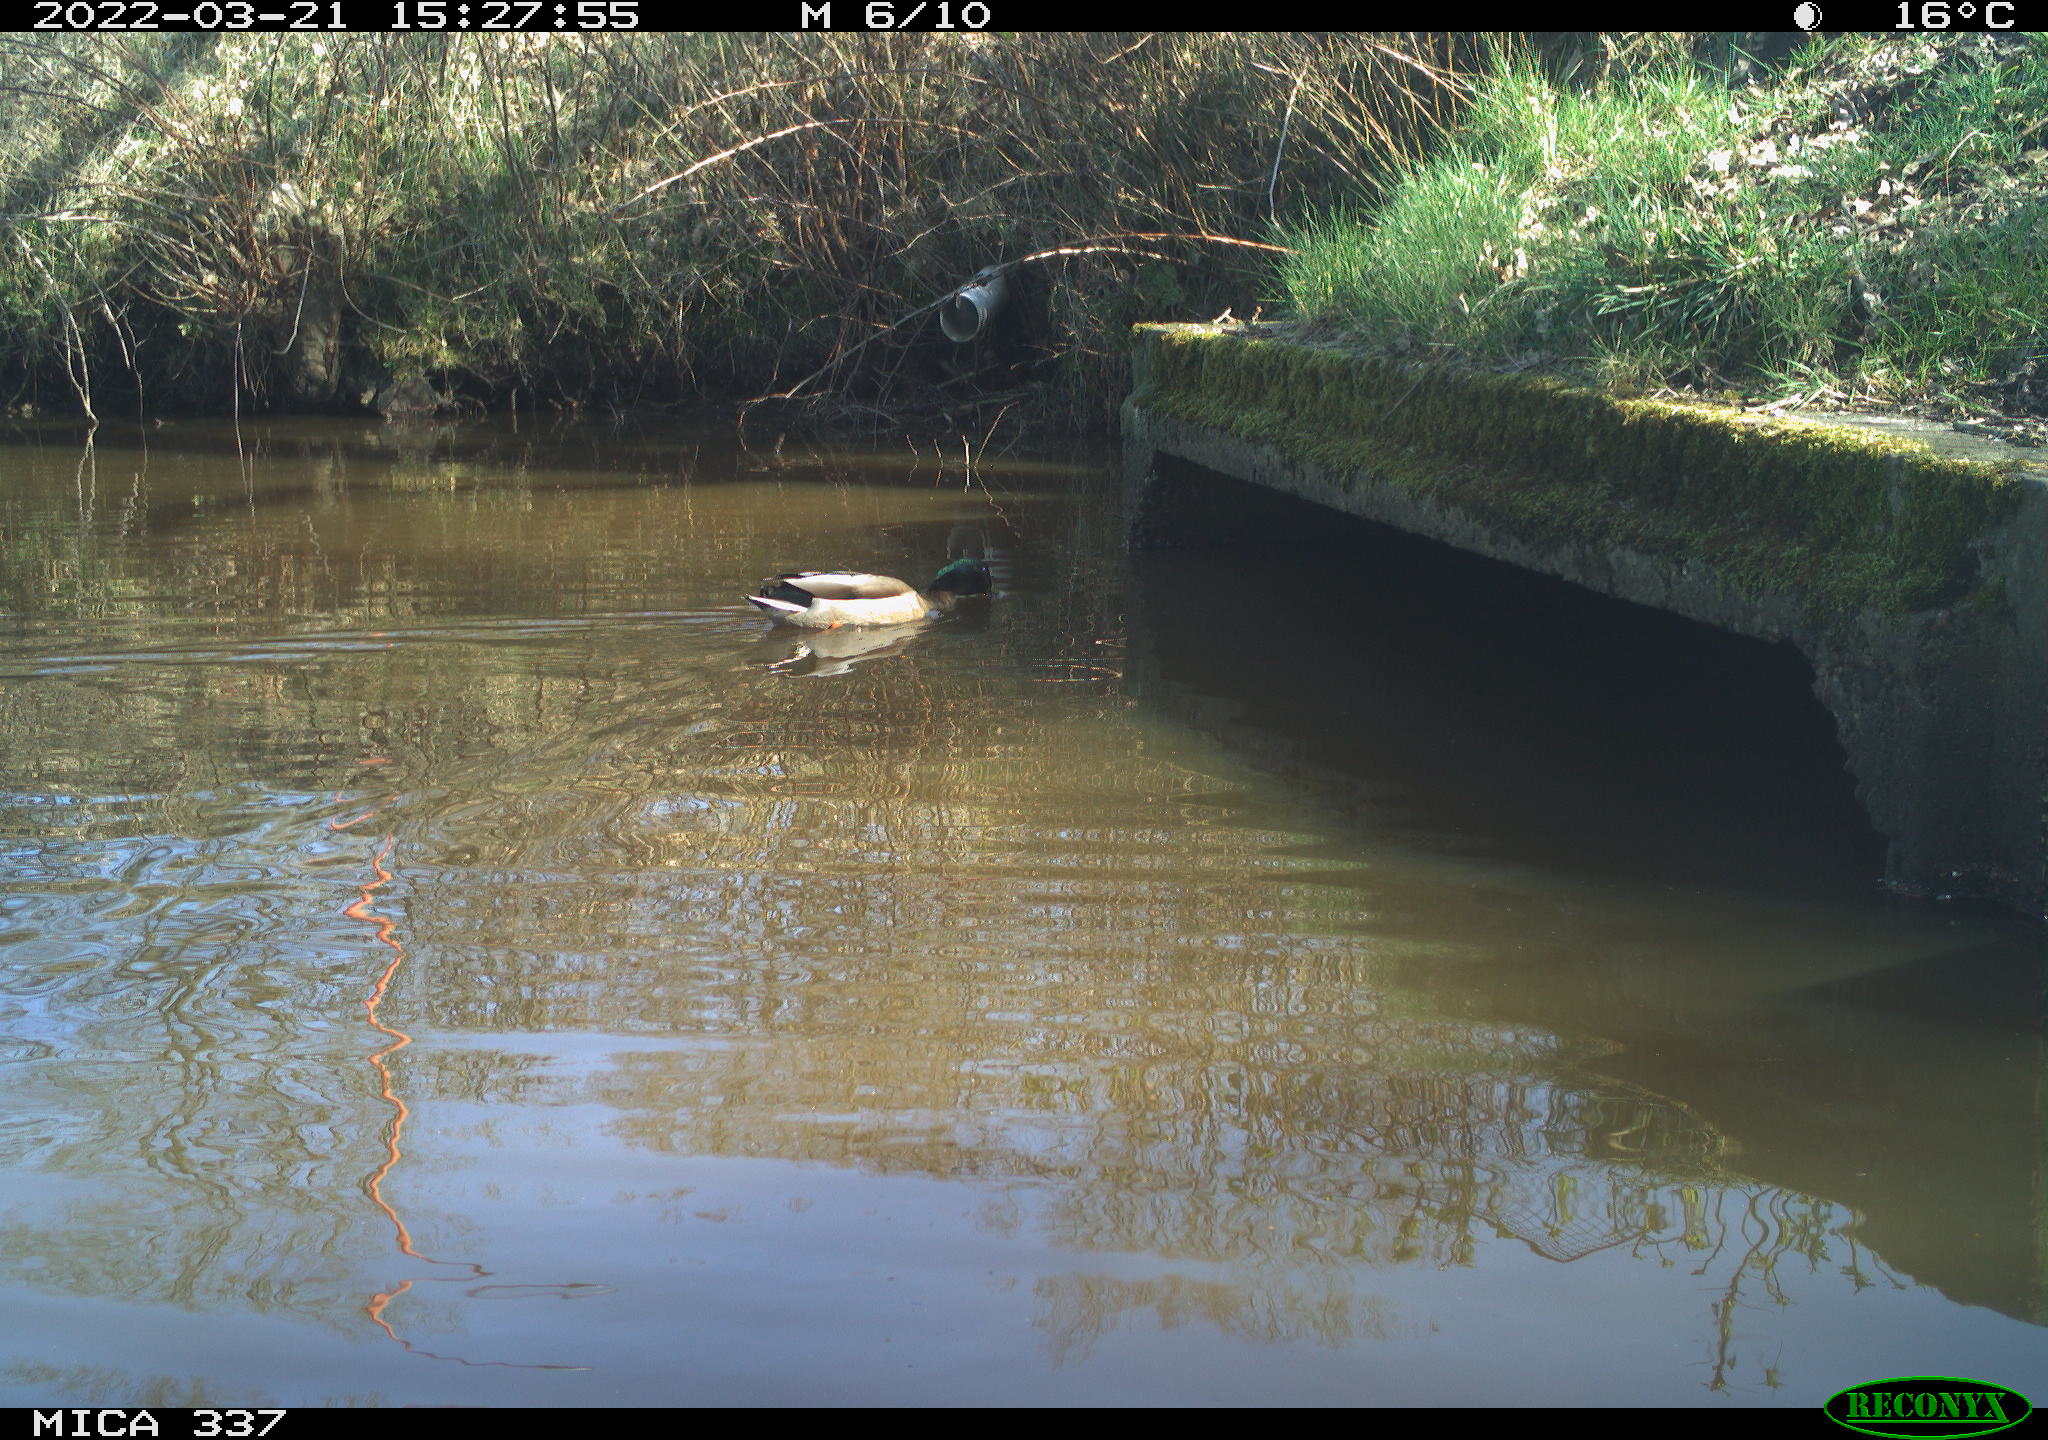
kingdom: Animalia
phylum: Chordata
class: Aves
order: Anseriformes
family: Anatidae
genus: Anas
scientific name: Anas platyrhynchos
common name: Mallard
